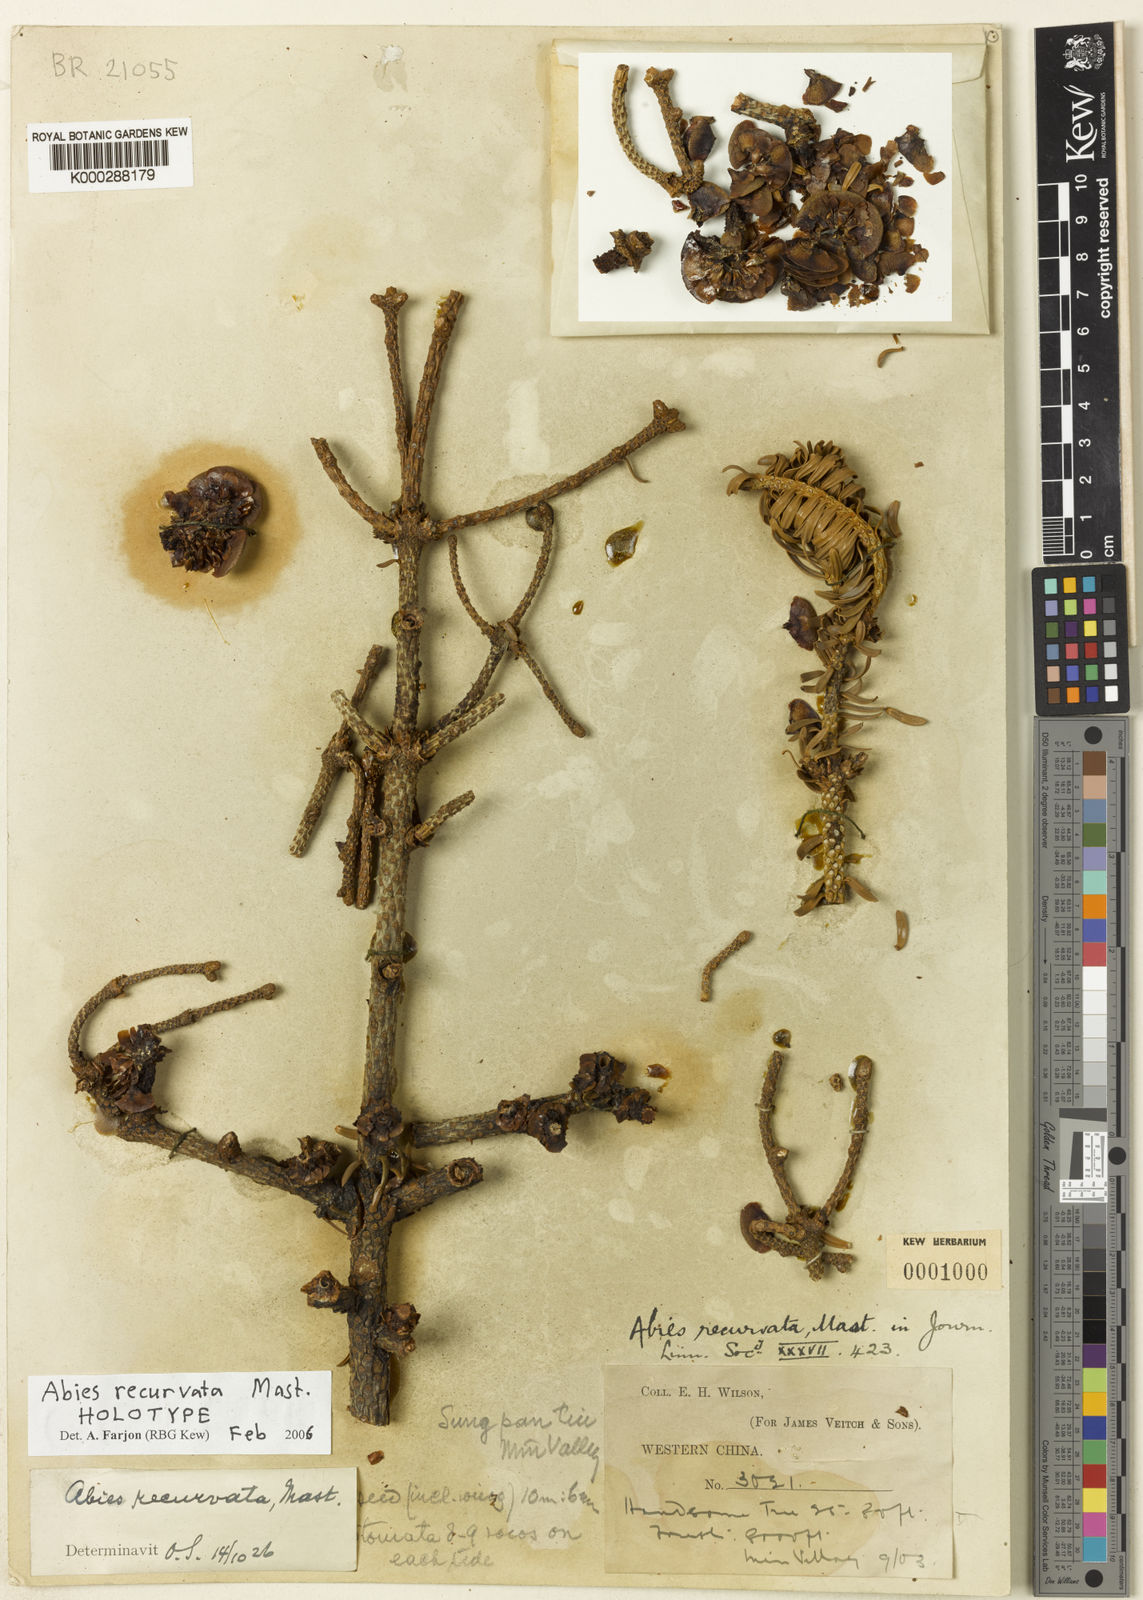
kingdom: Plantae
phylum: Tracheophyta
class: Pinopsida
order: Pinales
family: Pinaceae
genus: Abies
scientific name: Abies recurvata
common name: Min fir
